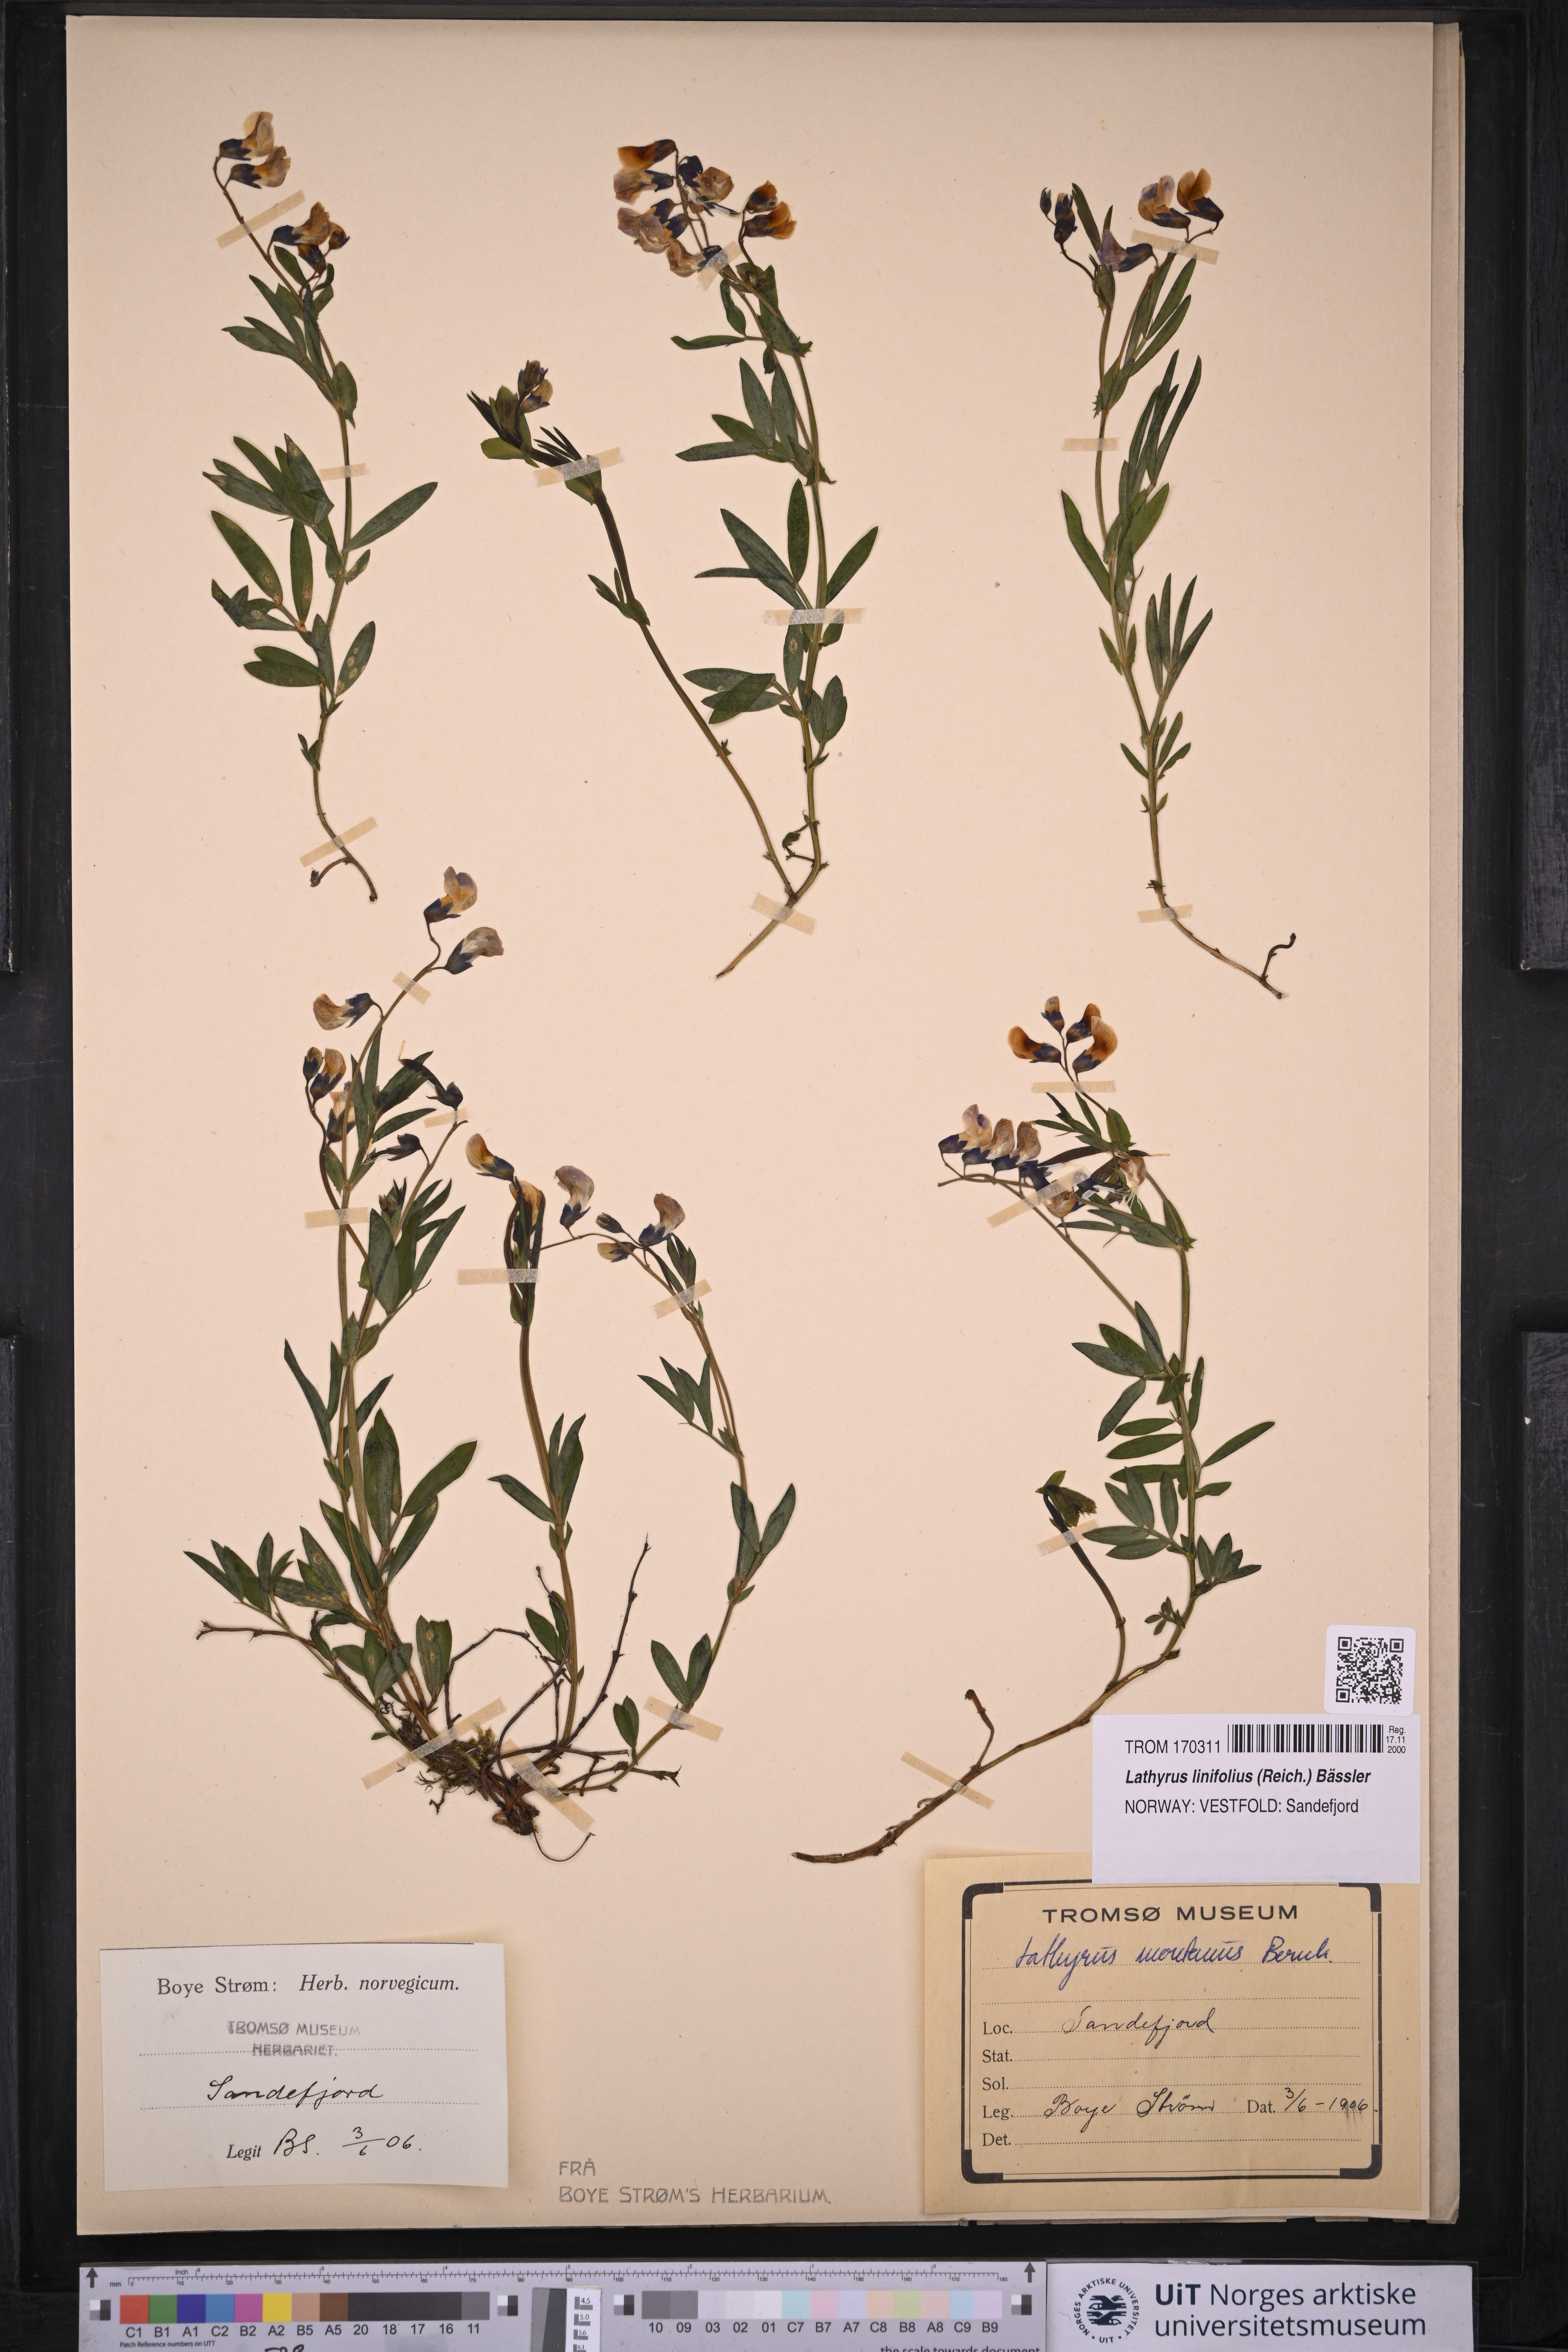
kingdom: Plantae
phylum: Tracheophyta
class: Magnoliopsida
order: Fabales
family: Fabaceae
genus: Lathyrus
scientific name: Lathyrus linifolius
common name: Bitter-vetch
